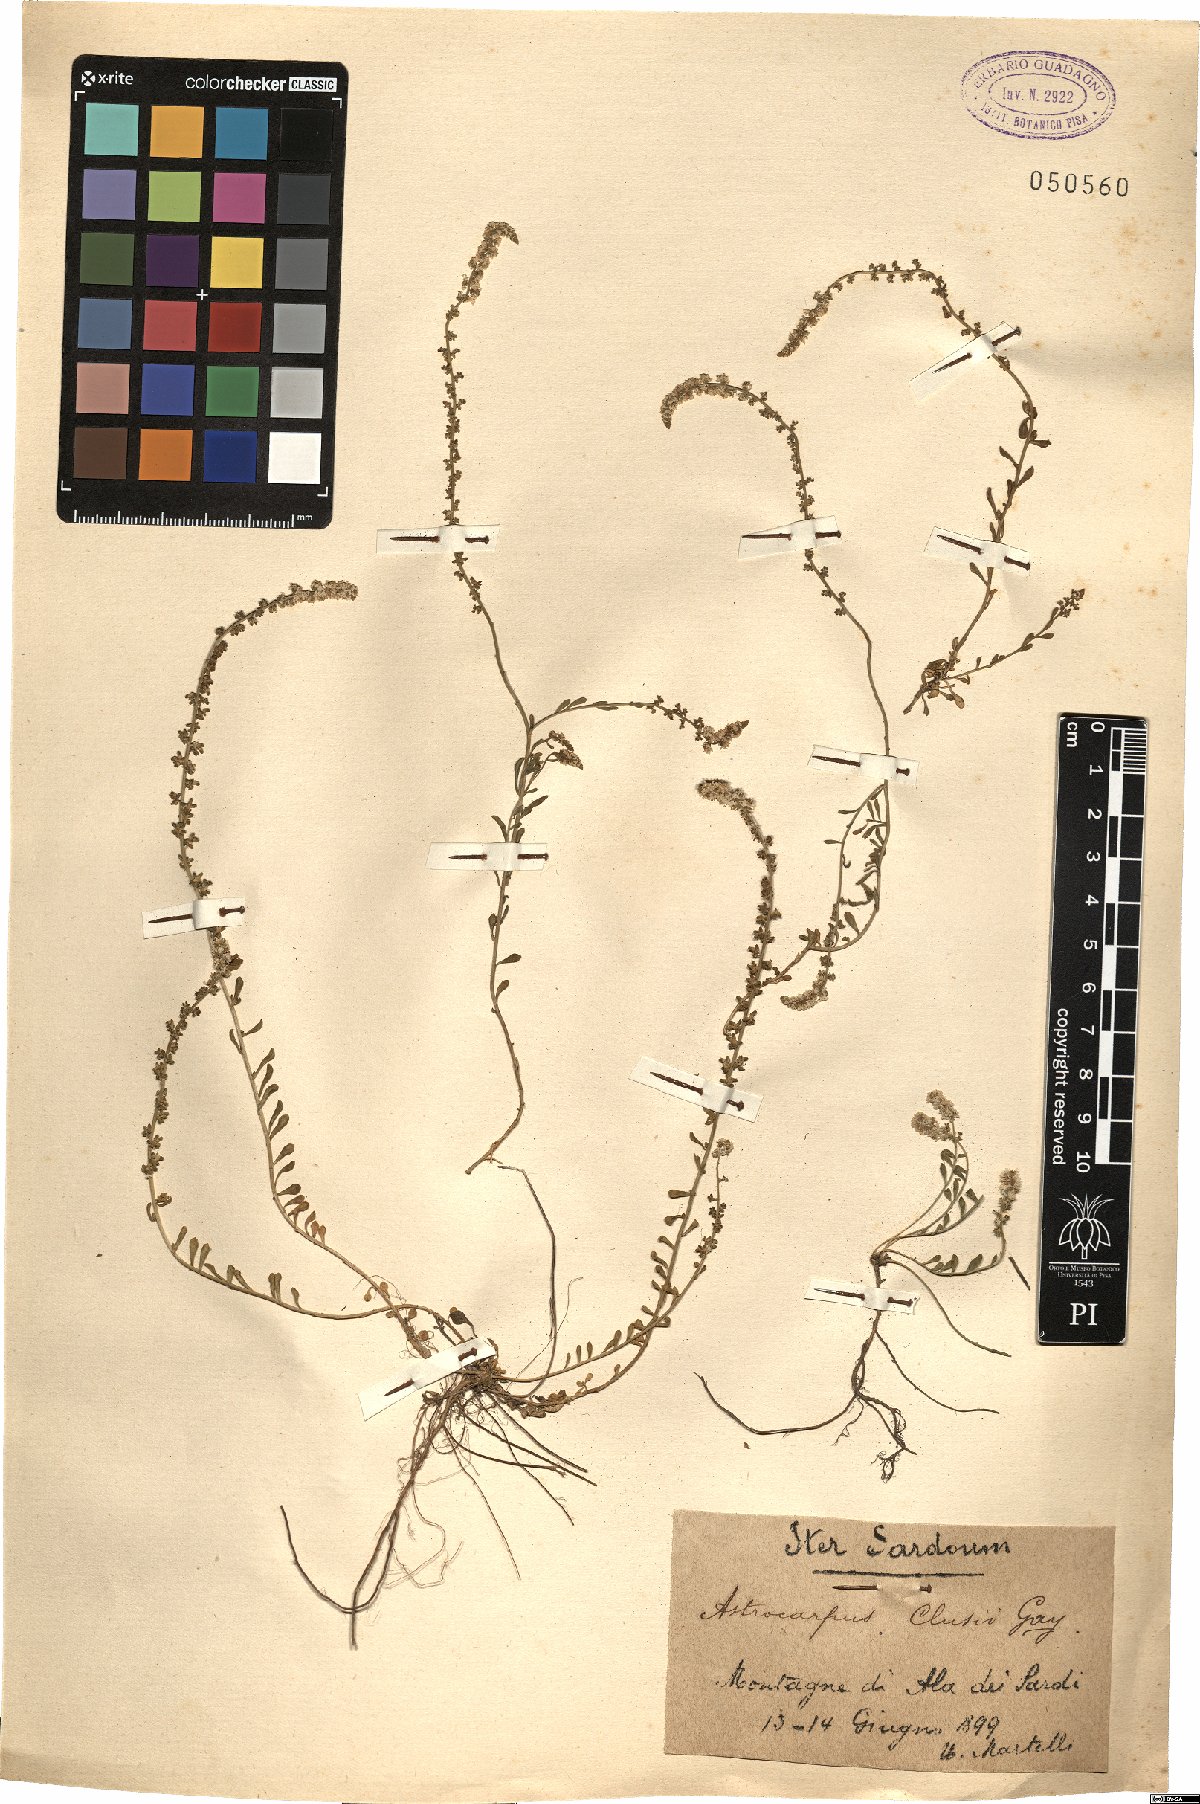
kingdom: Plantae
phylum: Tracheophyta
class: Magnoliopsida
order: Brassicales
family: Resedaceae
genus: Sesamoides
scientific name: Sesamoides purpurascens
